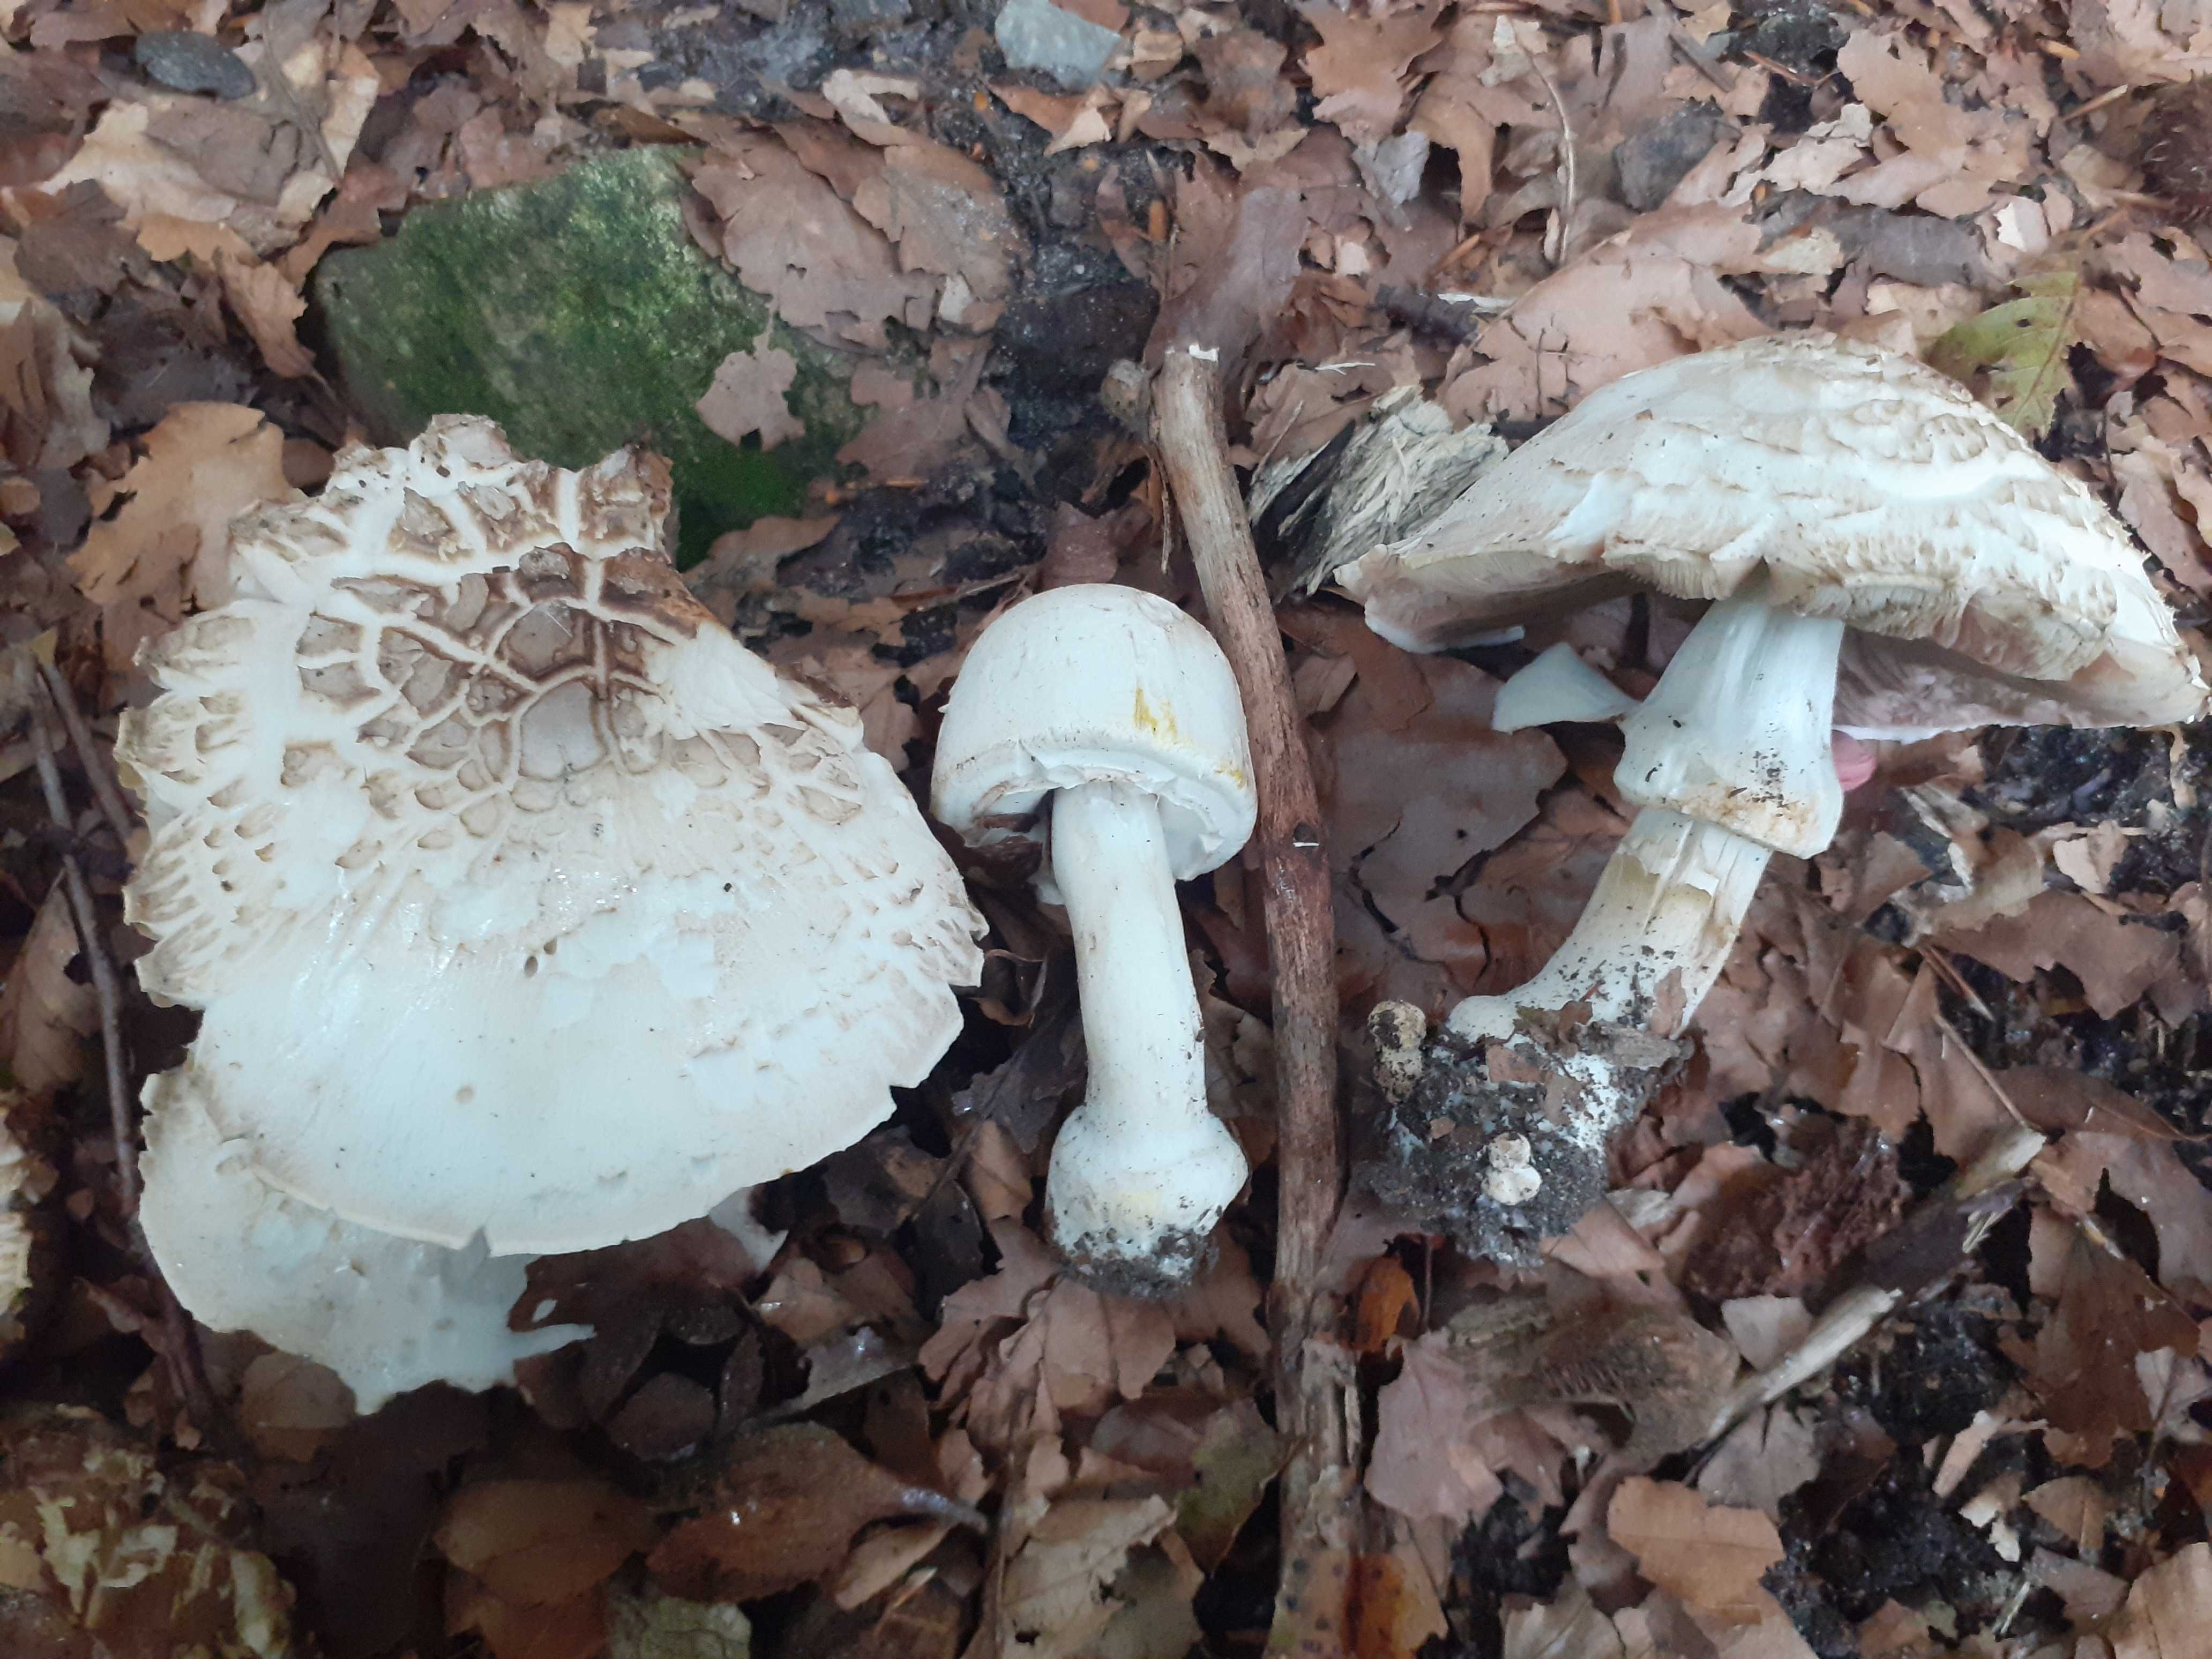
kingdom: Fungi
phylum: Basidiomycota
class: Agaricomycetes
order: Agaricales
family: Agaricaceae
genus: Agaricus
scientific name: Agaricus xanthodermus
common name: karbol-champignon
